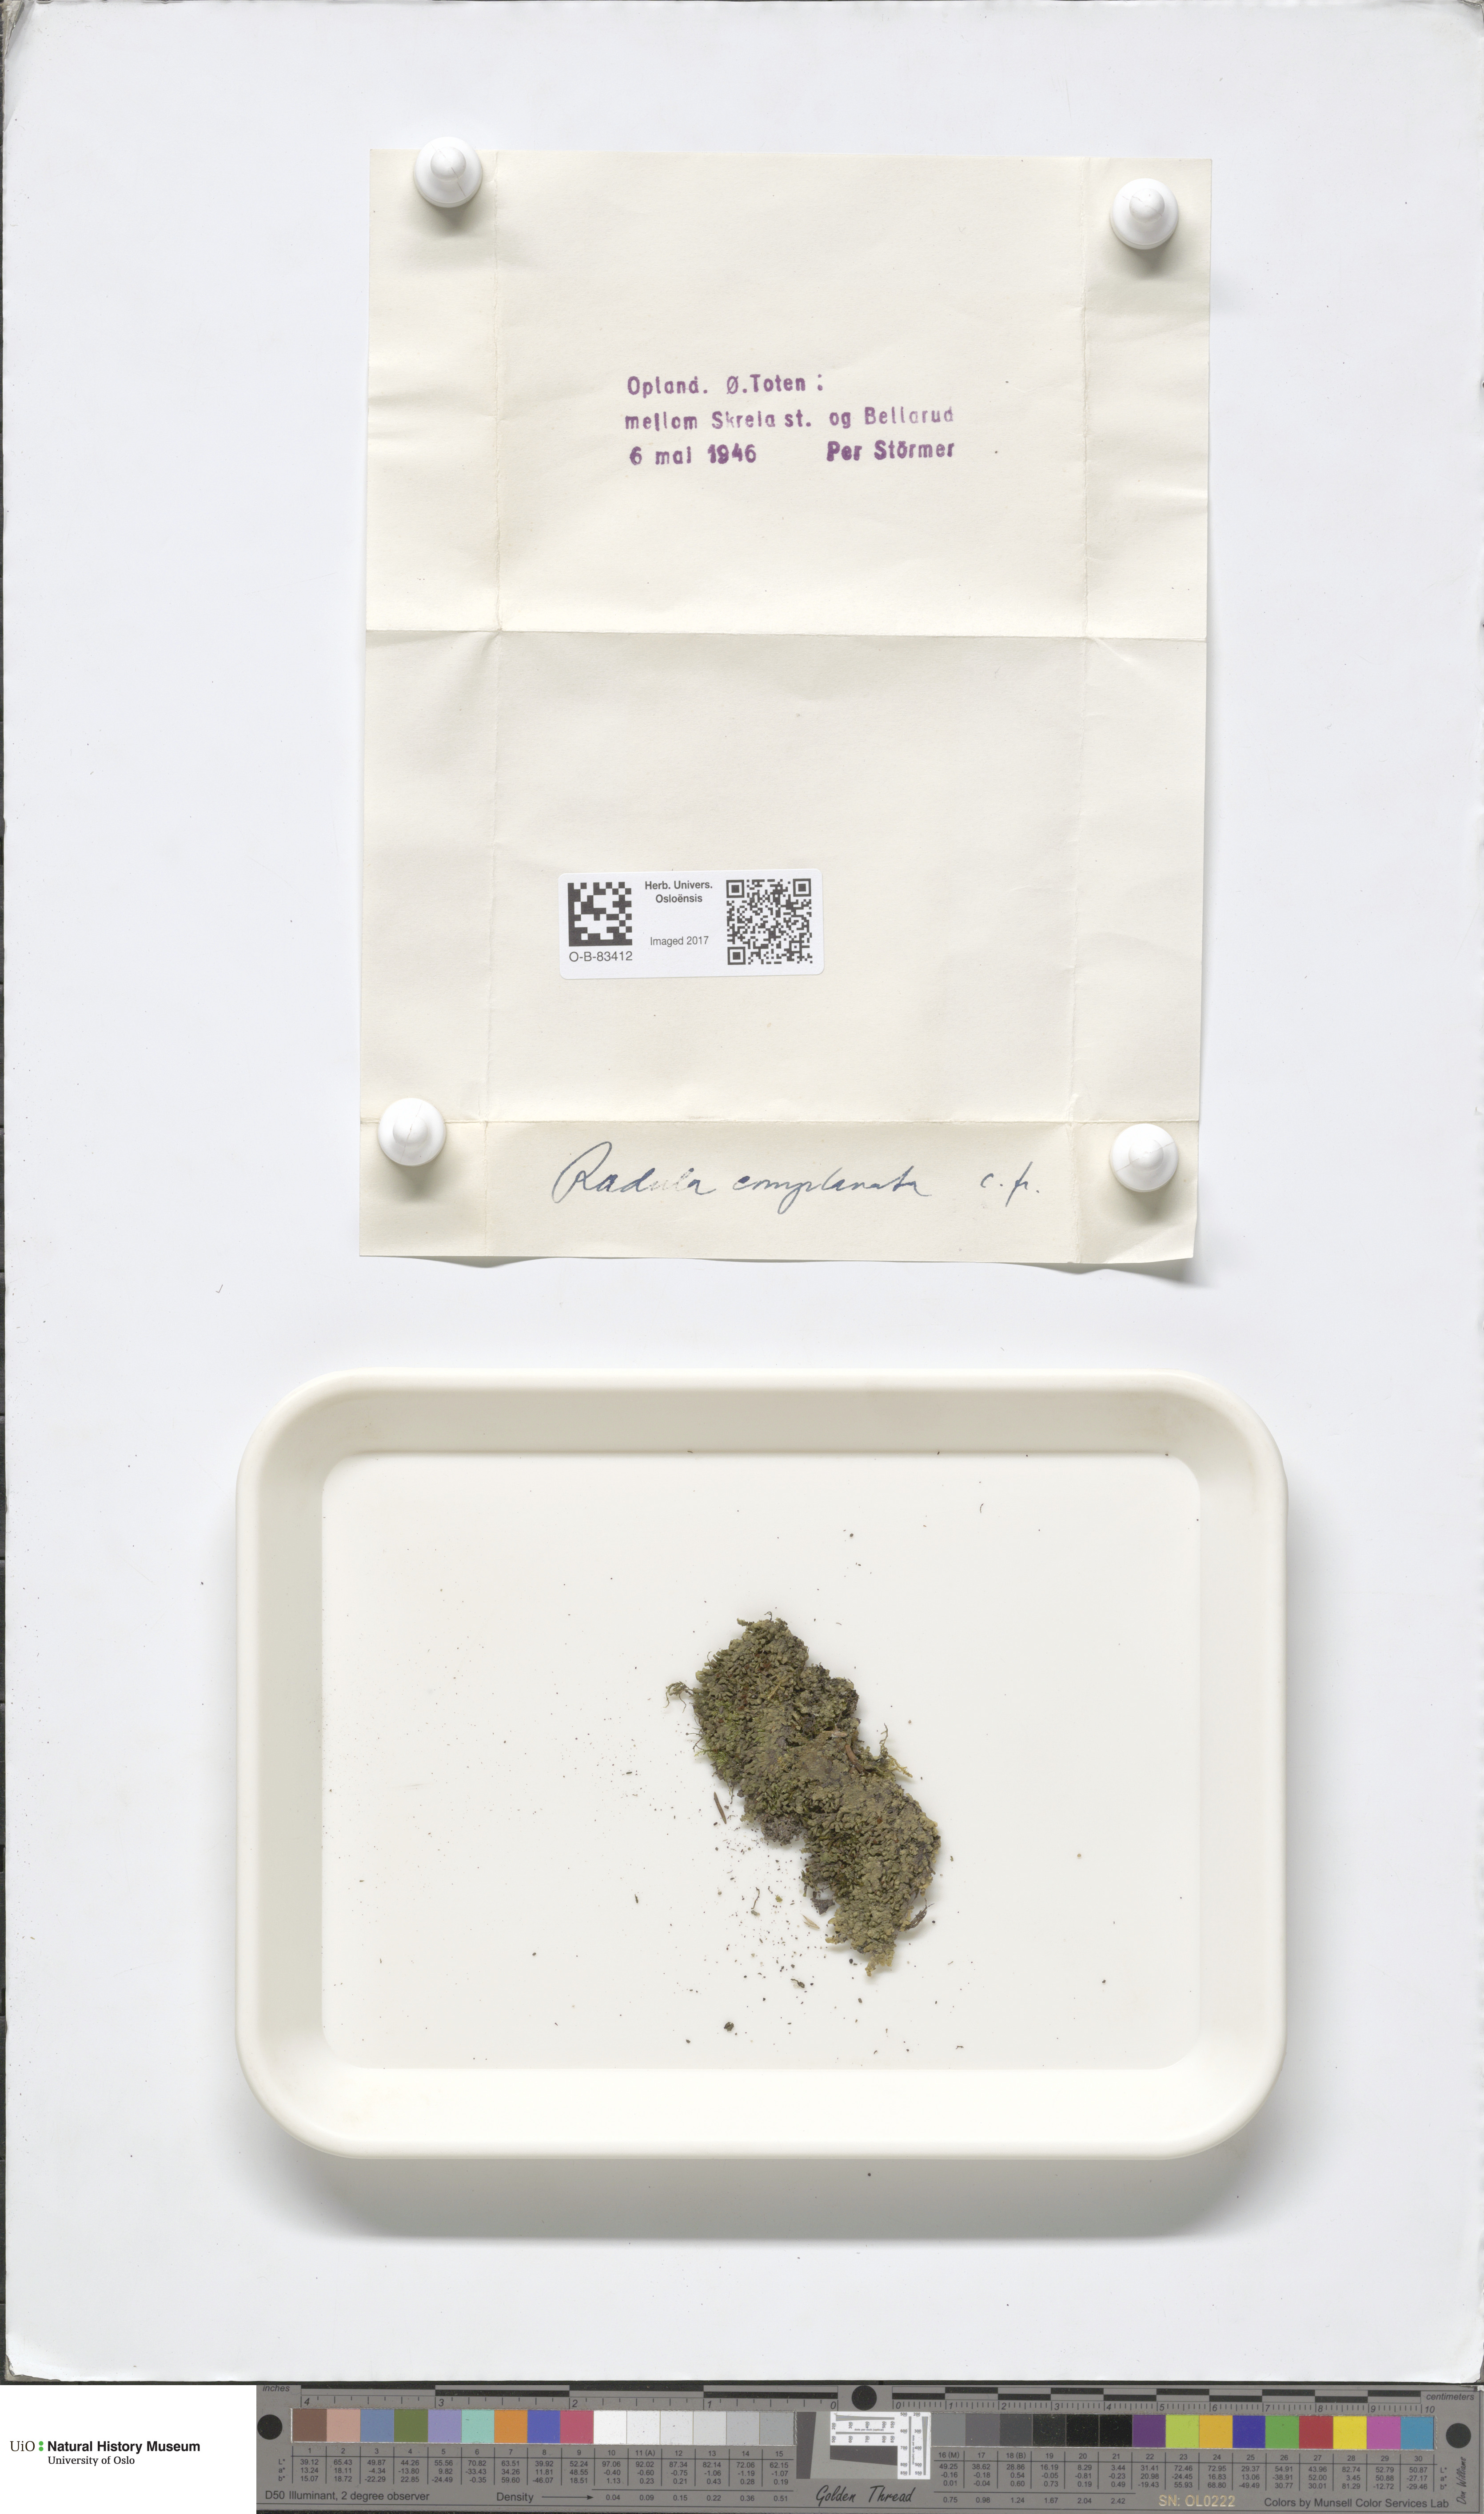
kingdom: Plantae
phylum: Marchantiophyta
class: Jungermanniopsida
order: Porellales
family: Radulaceae
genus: Radula
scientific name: Radula complanata
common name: Flat-leaved scalewort
